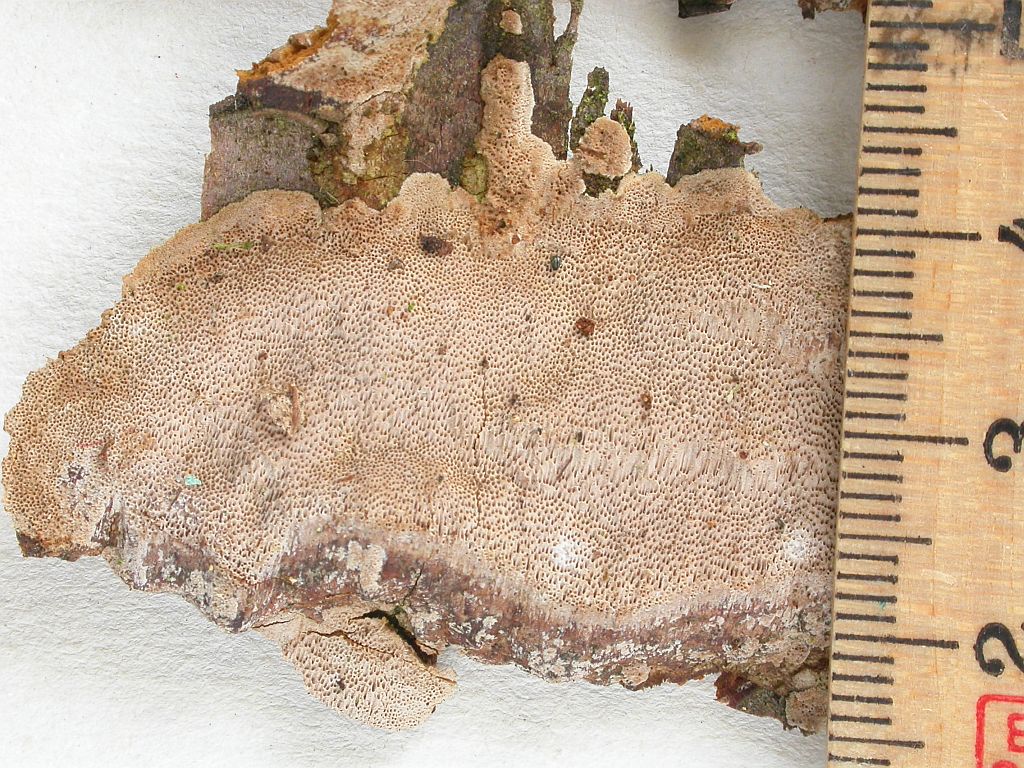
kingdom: Fungi
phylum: Basidiomycota
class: Agaricomycetes
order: Hymenochaetales
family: Hymenochaetaceae
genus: Fuscoporia
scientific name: Fuscoporia ferrea
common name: skorpe-ildporesvamp
